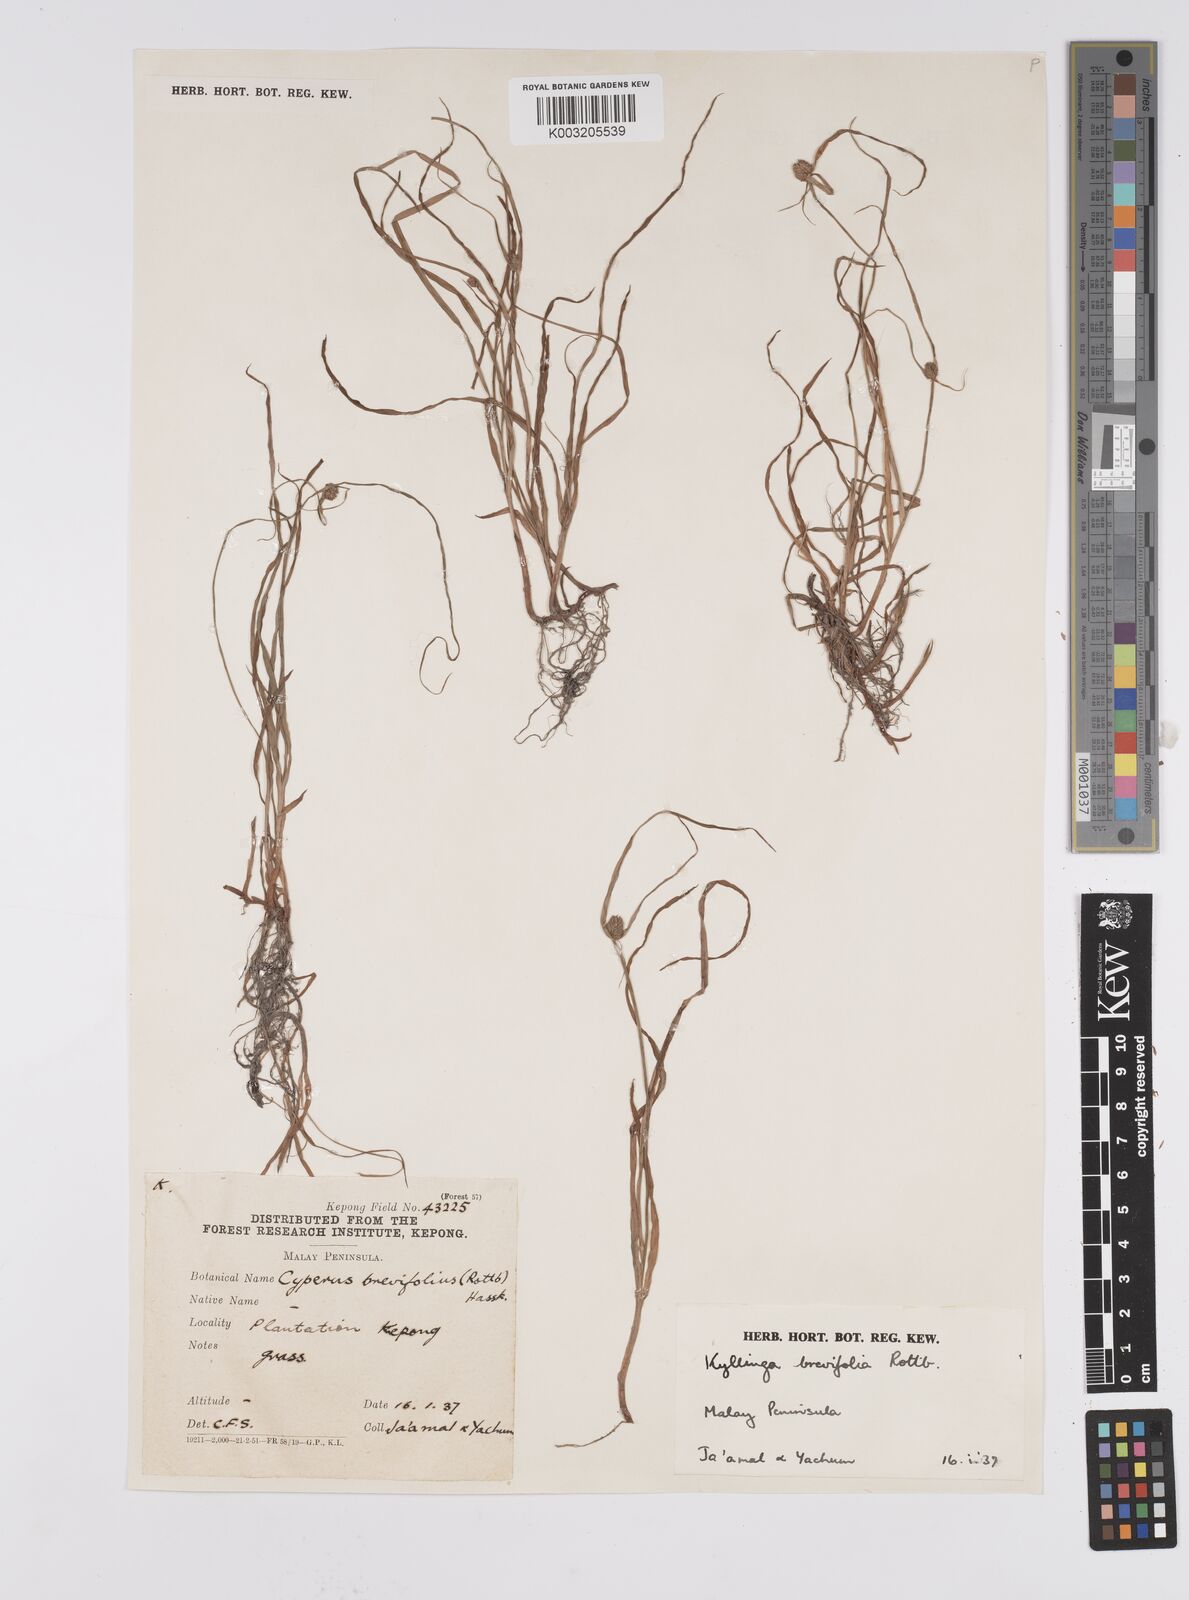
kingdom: Plantae
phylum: Tracheophyta
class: Liliopsida
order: Poales
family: Cyperaceae
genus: Cyperus
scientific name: Cyperus
